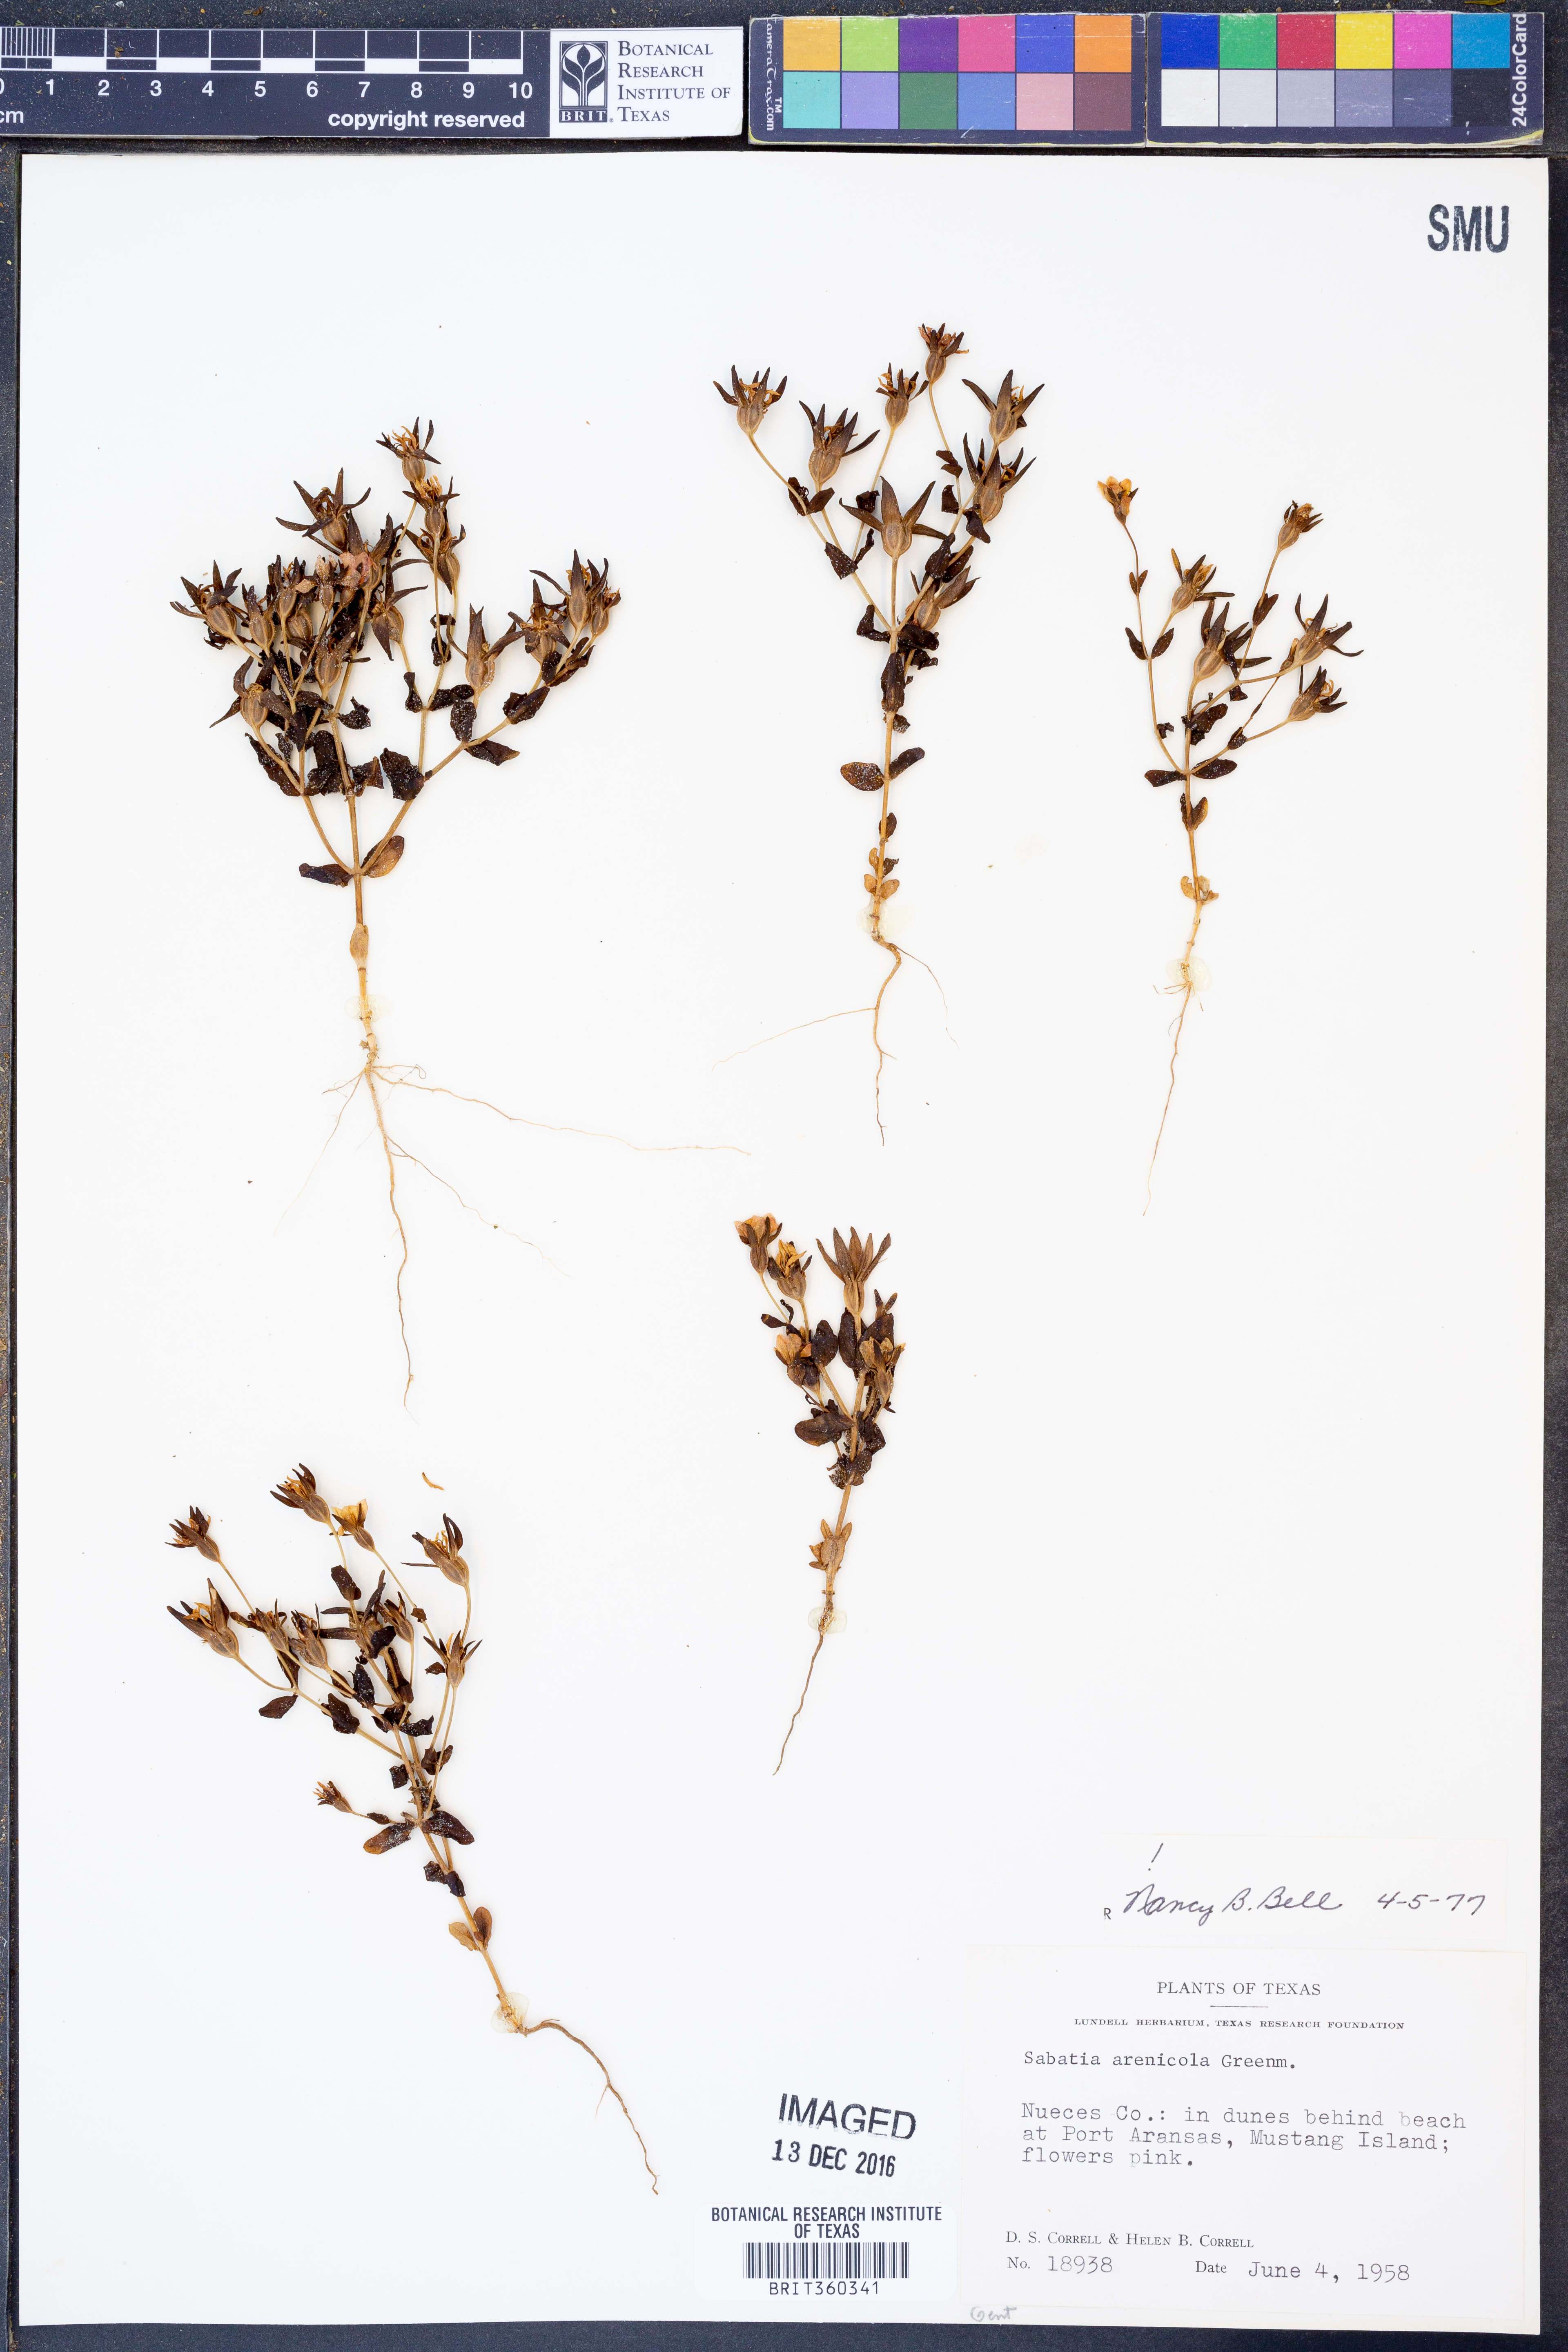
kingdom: Plantae
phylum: Tracheophyta
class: Magnoliopsida
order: Gentianales
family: Gentianaceae
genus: Sabatia
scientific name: Sabatia arenicola
